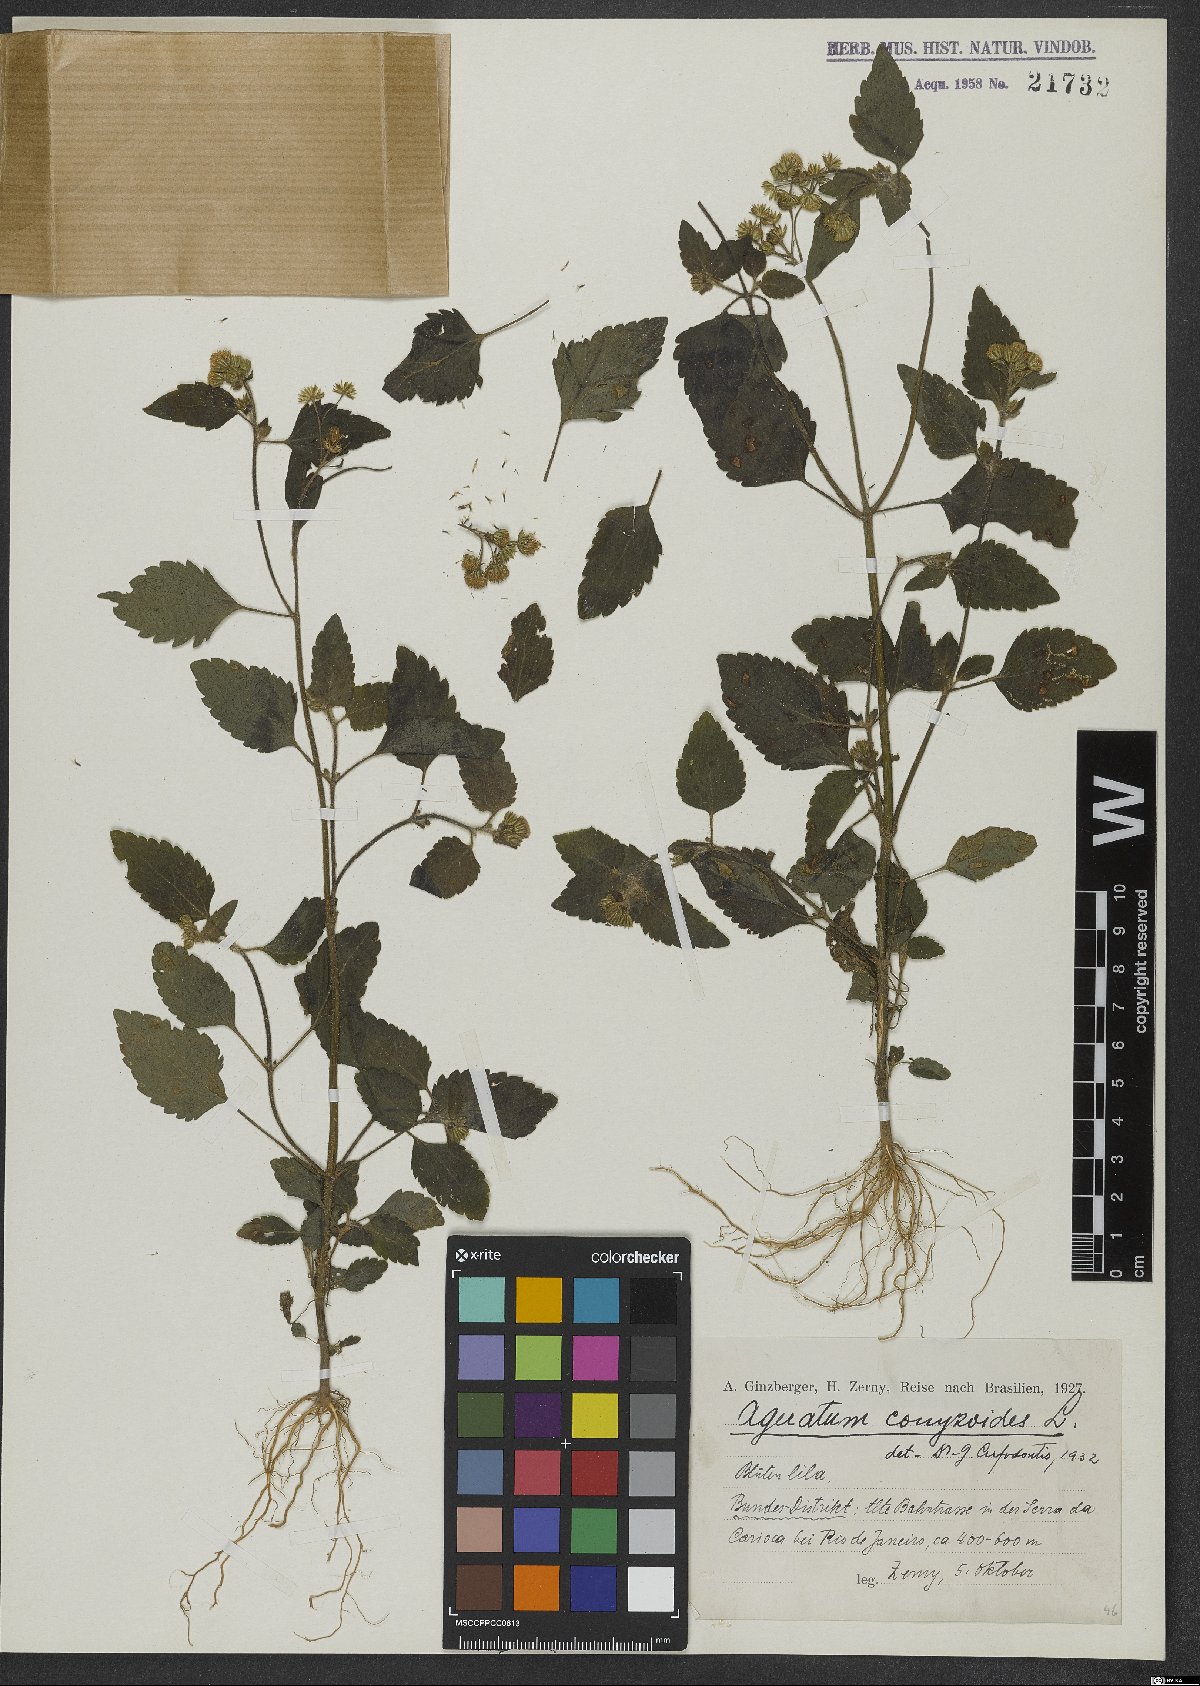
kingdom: Plantae
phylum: Tracheophyta
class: Magnoliopsida
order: Asterales
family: Asteraceae
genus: Ageratum
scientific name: Ageratum conyzoides
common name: Tropical whiteweed
